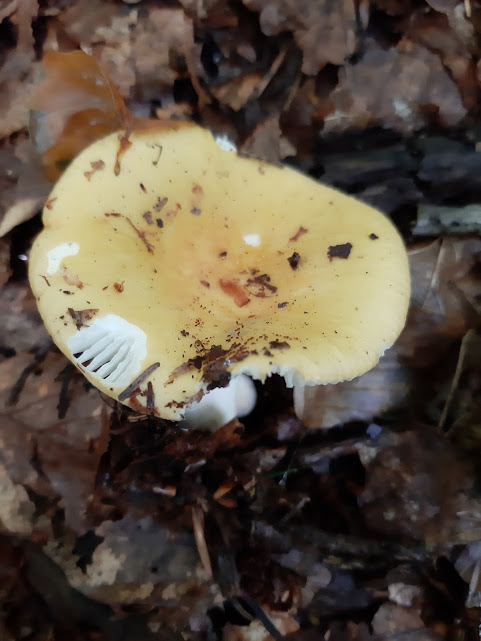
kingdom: Fungi
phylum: Basidiomycota
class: Agaricomycetes
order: Russulales
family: Russulaceae
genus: Russula
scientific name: Russula ochroleuca
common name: okkergul skørhat
